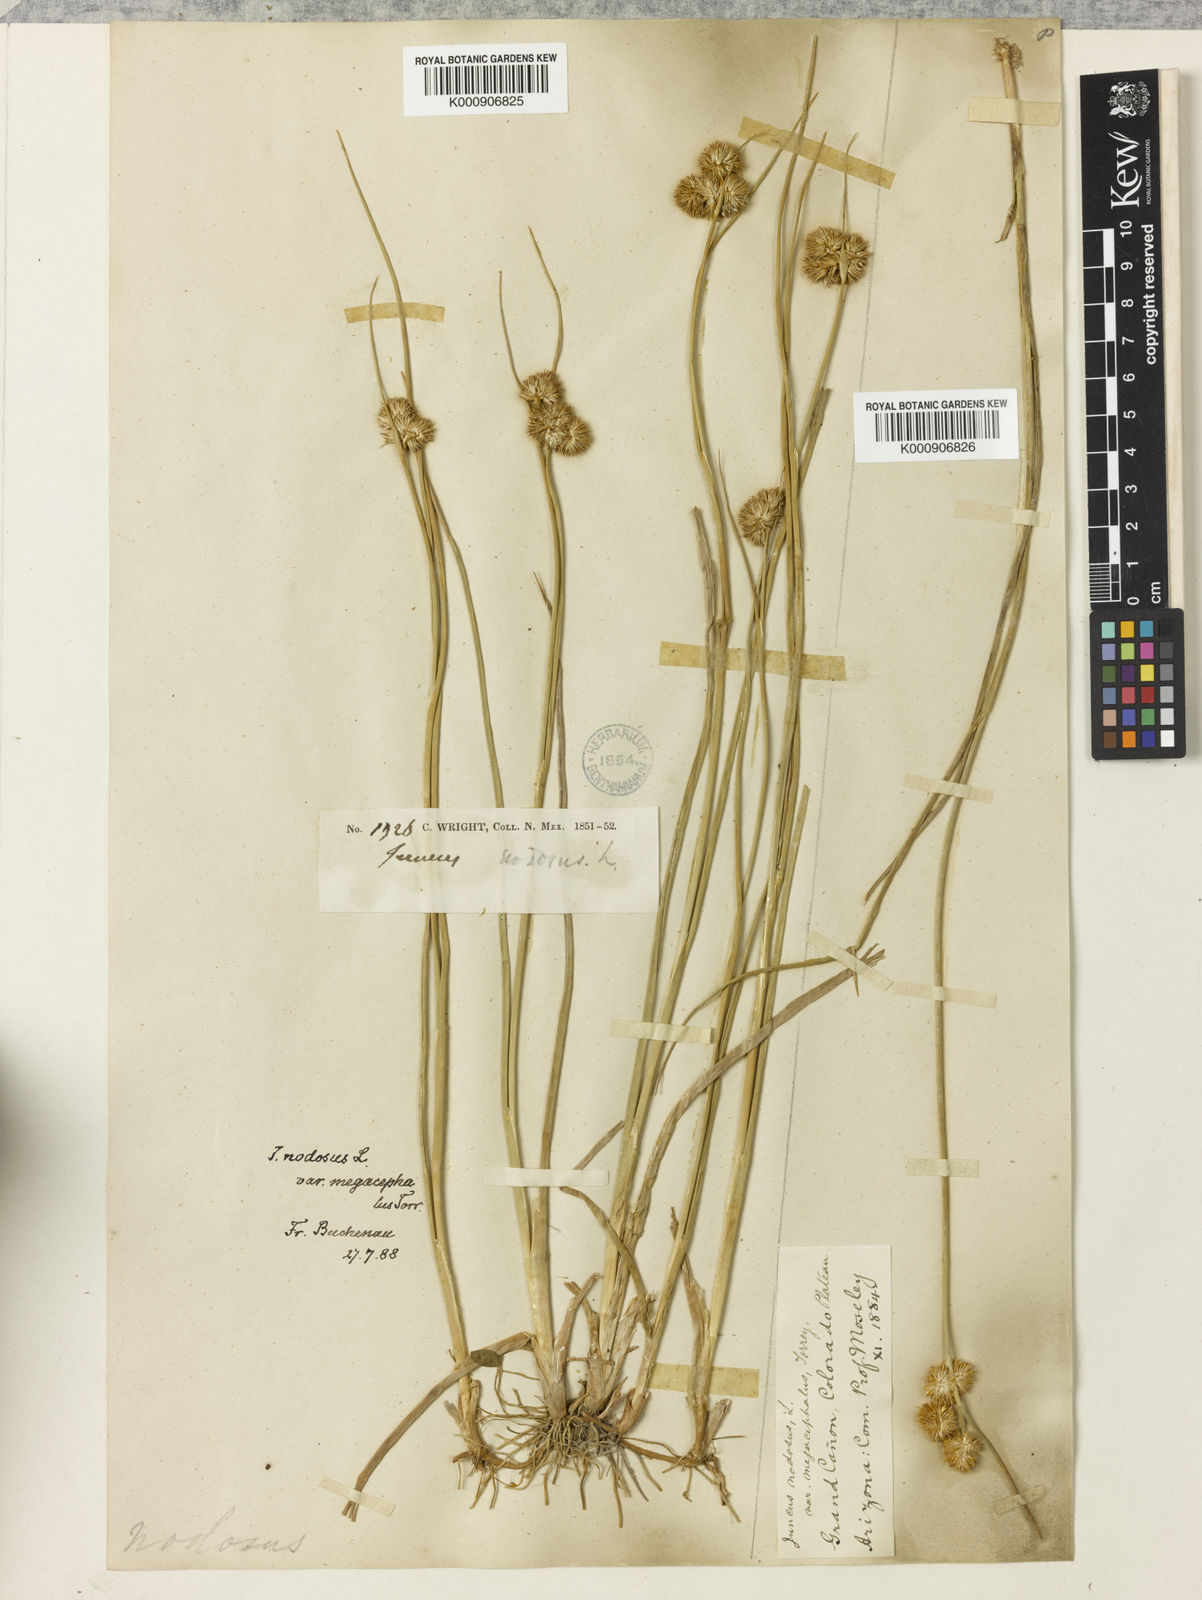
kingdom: Plantae
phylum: Tracheophyta
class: Liliopsida
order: Poales
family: Juncaceae
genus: Juncus
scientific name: Juncus nodosus
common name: Knotted rush
